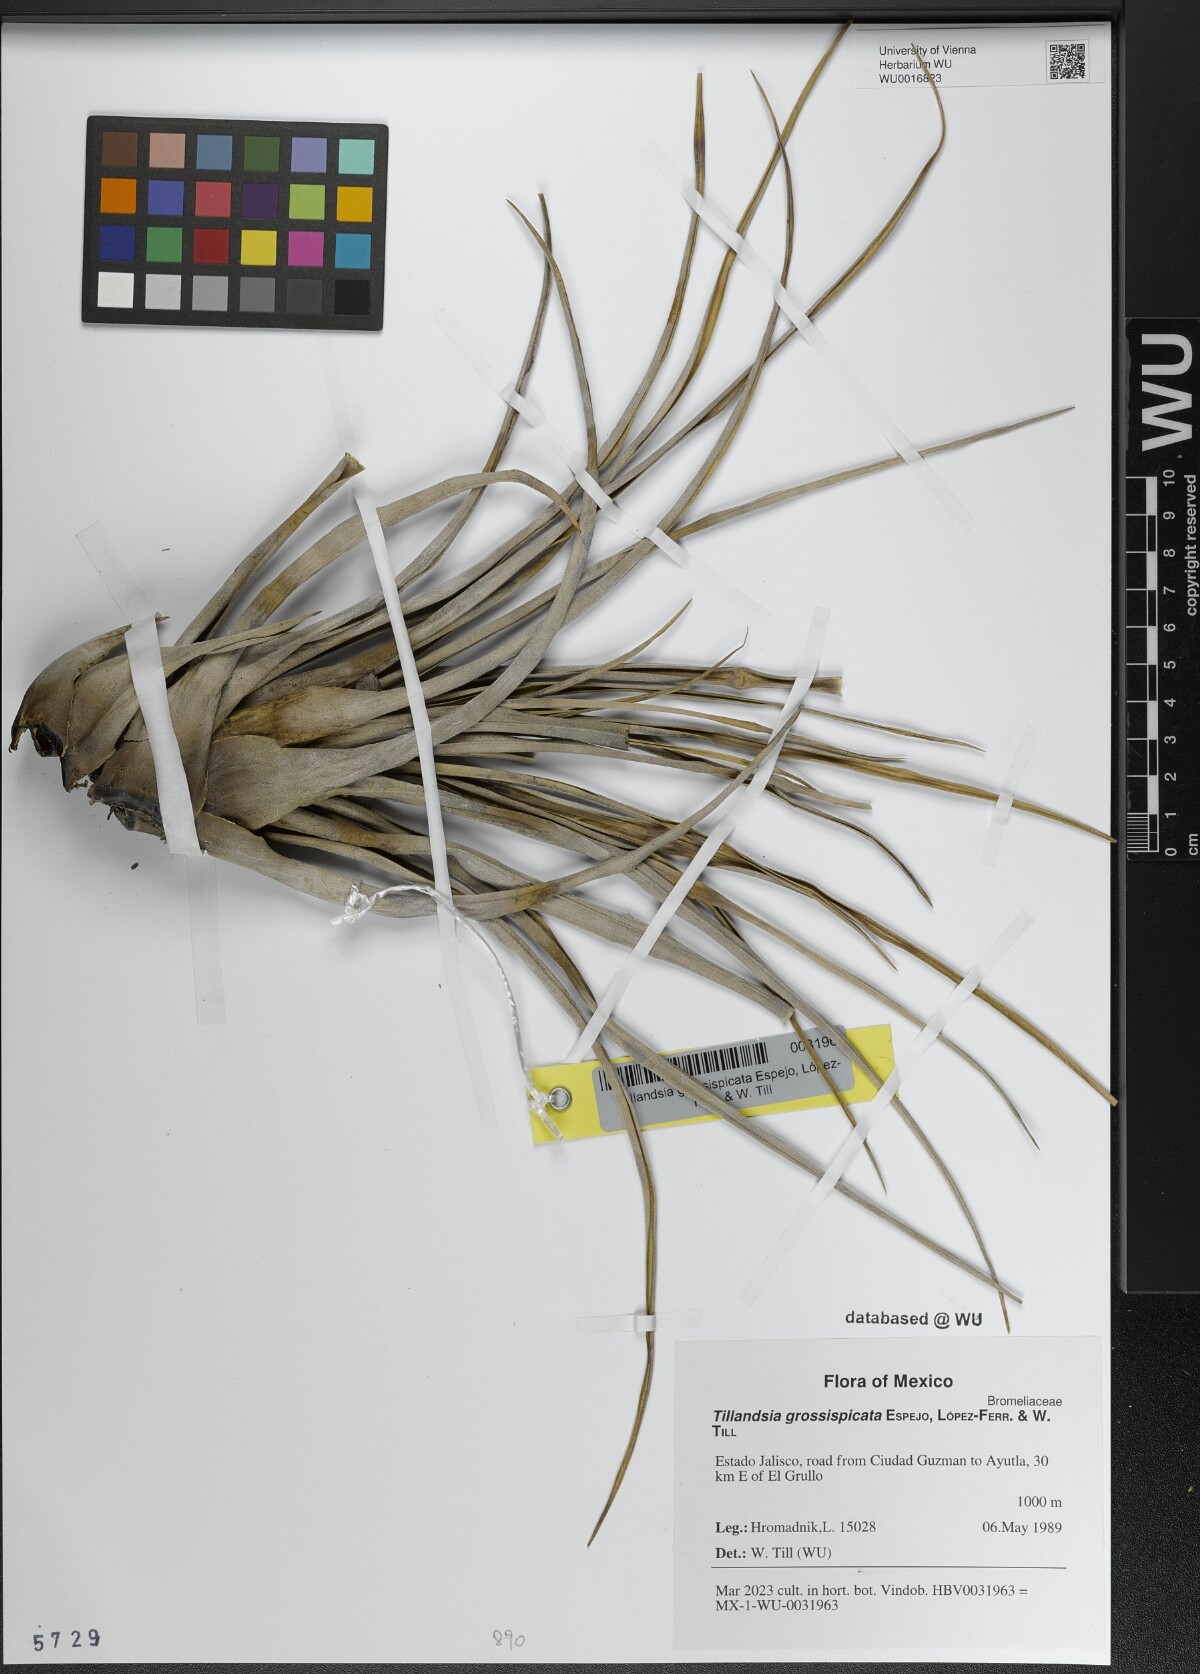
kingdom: Plantae
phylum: Tracheophyta
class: Liliopsida
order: Poales
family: Bromeliaceae
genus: Tillandsia
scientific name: Tillandsia grossispicata
